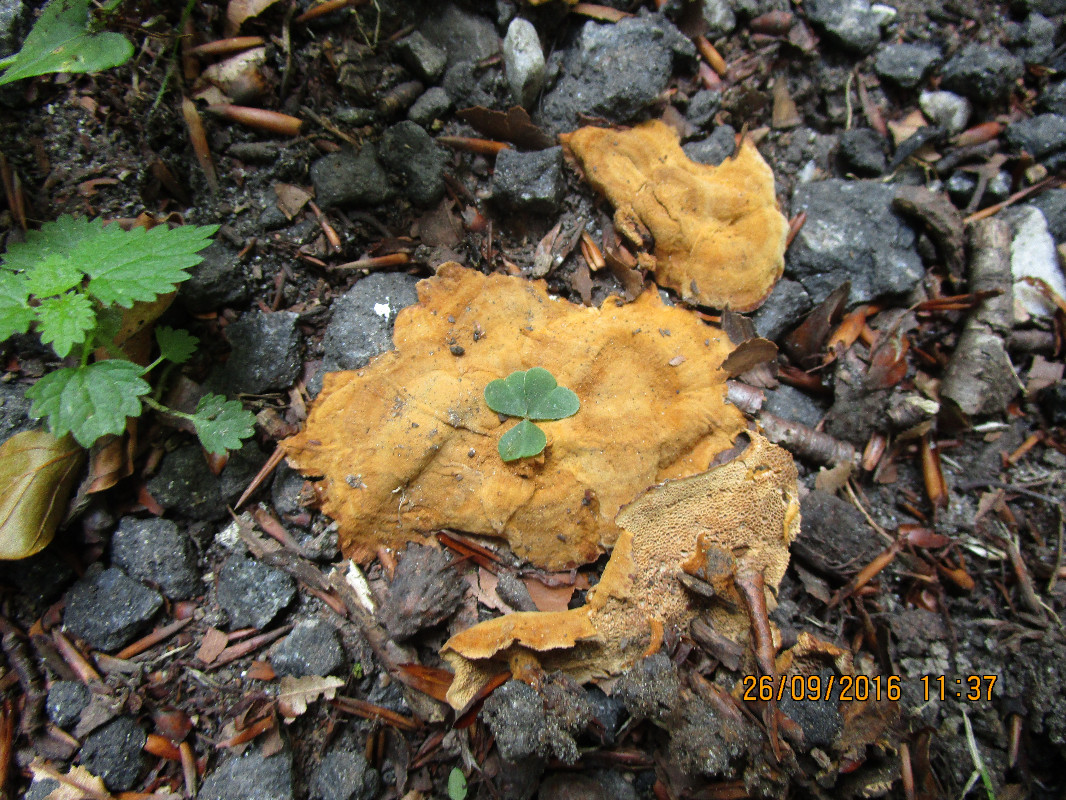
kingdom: Fungi
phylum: Basidiomycota
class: Agaricomycetes
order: Hymenochaetales
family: Hymenochaetaceae
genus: Coltricia
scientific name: Coltricia confluens
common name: park-sandporesvamp
